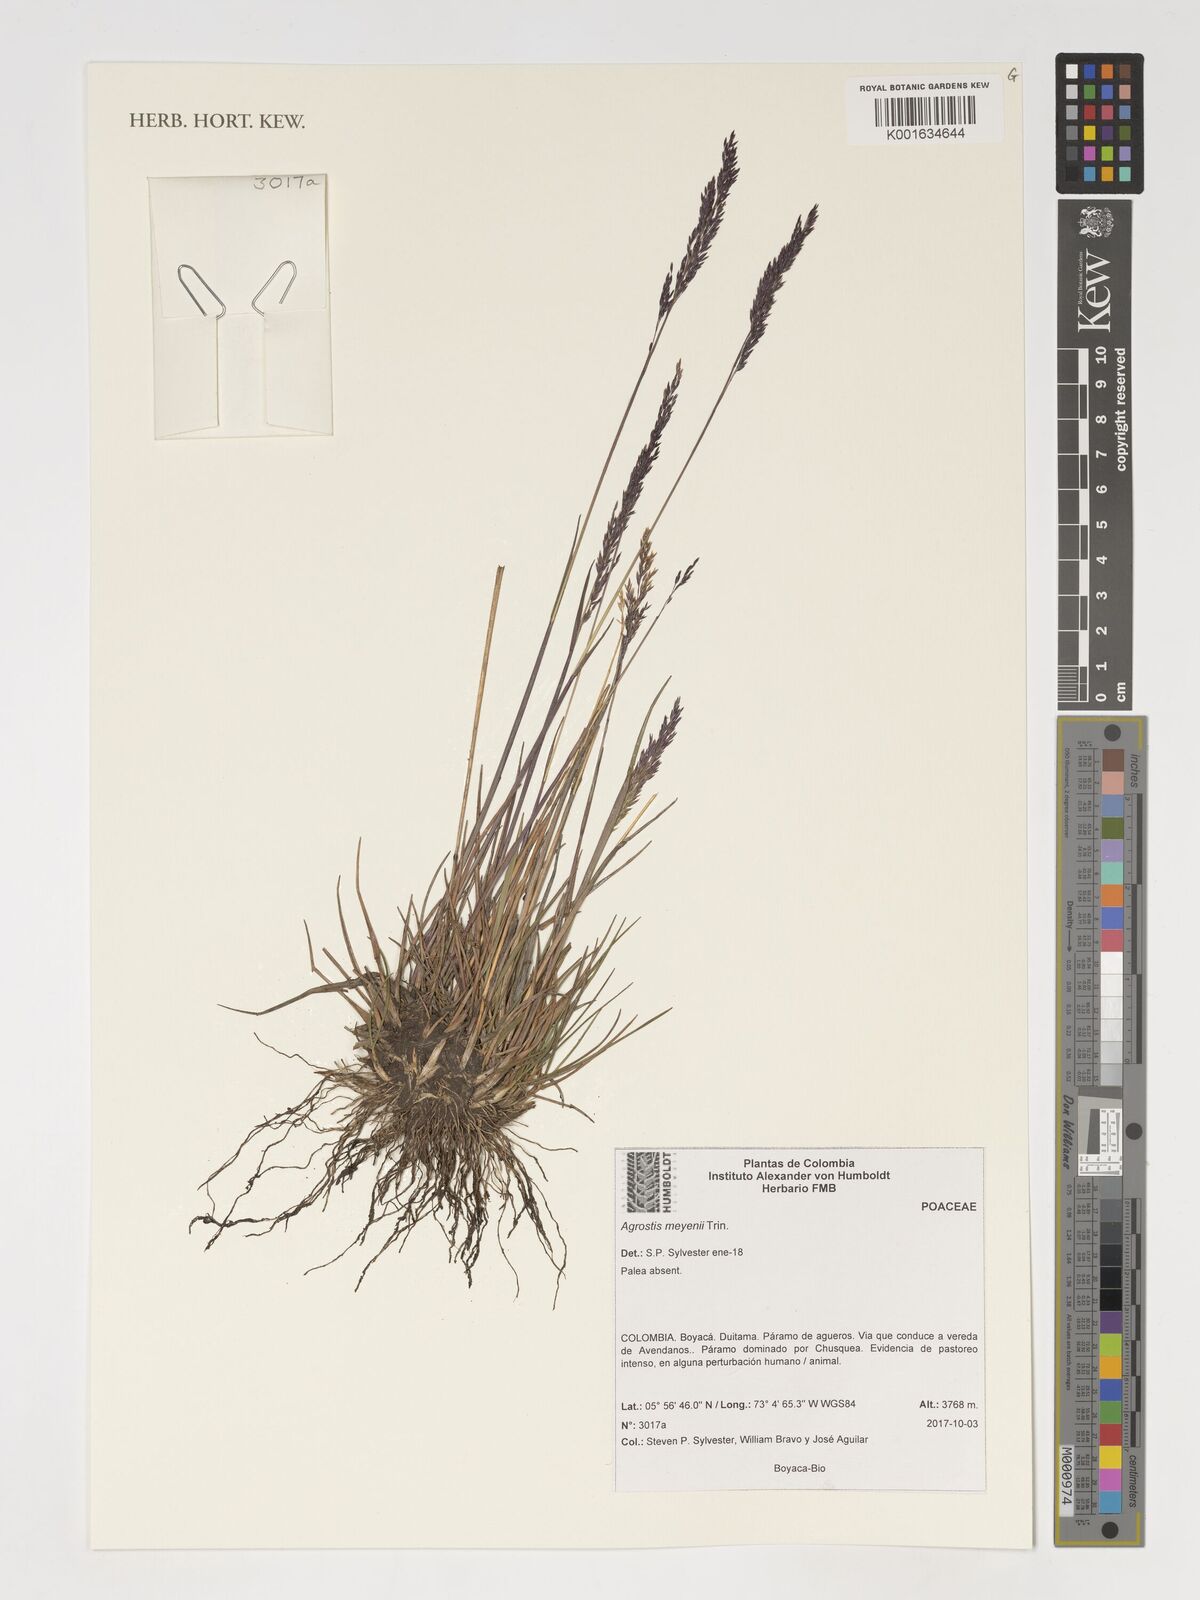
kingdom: Plantae
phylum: Tracheophyta
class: Liliopsida
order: Poales
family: Poaceae
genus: Agrostis
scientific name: Agrostis meyenii
